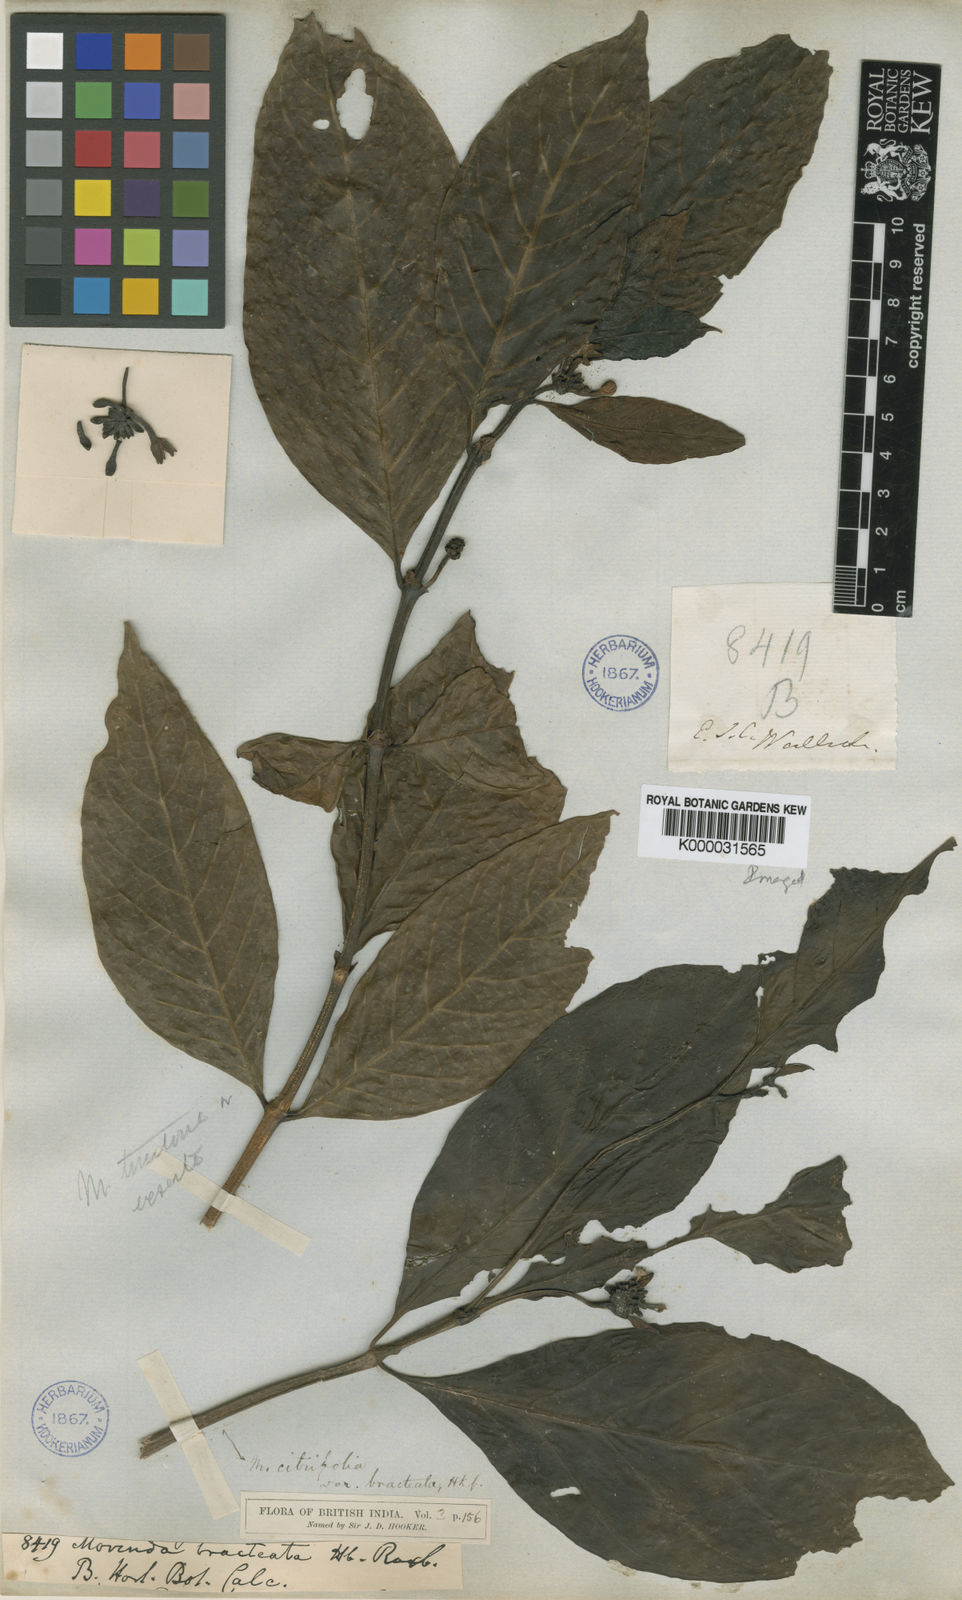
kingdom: Plantae
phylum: Tracheophyta
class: Magnoliopsida
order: Gentianales
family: Rubiaceae
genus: Morinda
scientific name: Morinda citrifolia
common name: Indian-mulberry
